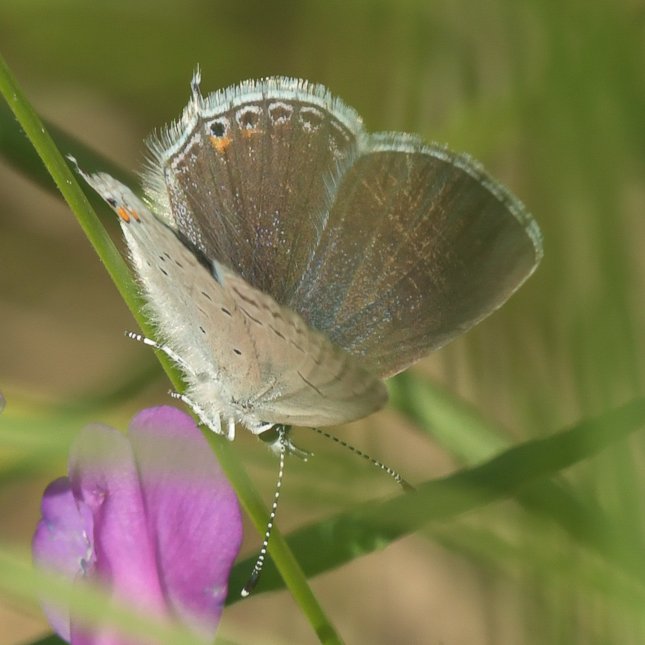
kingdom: Animalia
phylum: Arthropoda
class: Insecta
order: Lepidoptera
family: Lycaenidae
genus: Elkalyce
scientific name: Elkalyce amyntula
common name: Western Tailed-Blue
